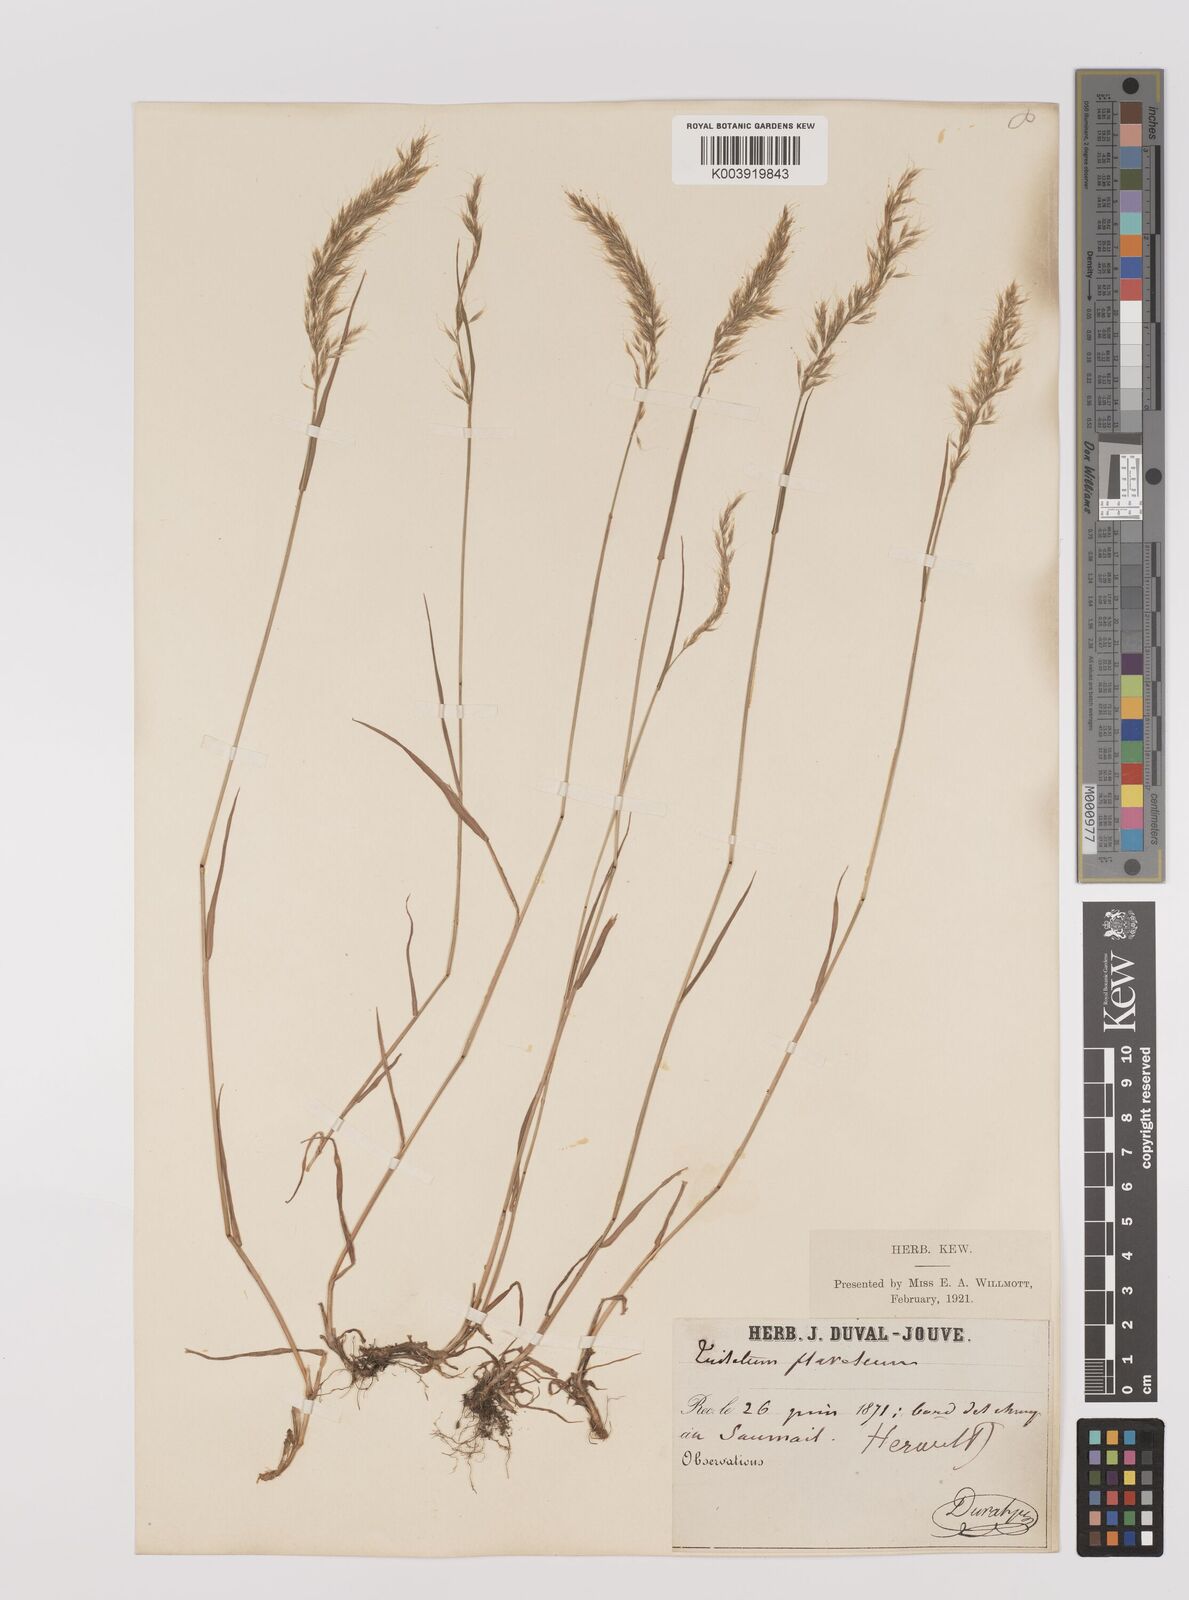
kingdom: Plantae
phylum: Tracheophyta
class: Liliopsida
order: Poales
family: Poaceae
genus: Trisetum
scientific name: Trisetum flavescens
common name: Yellow oat-grass
